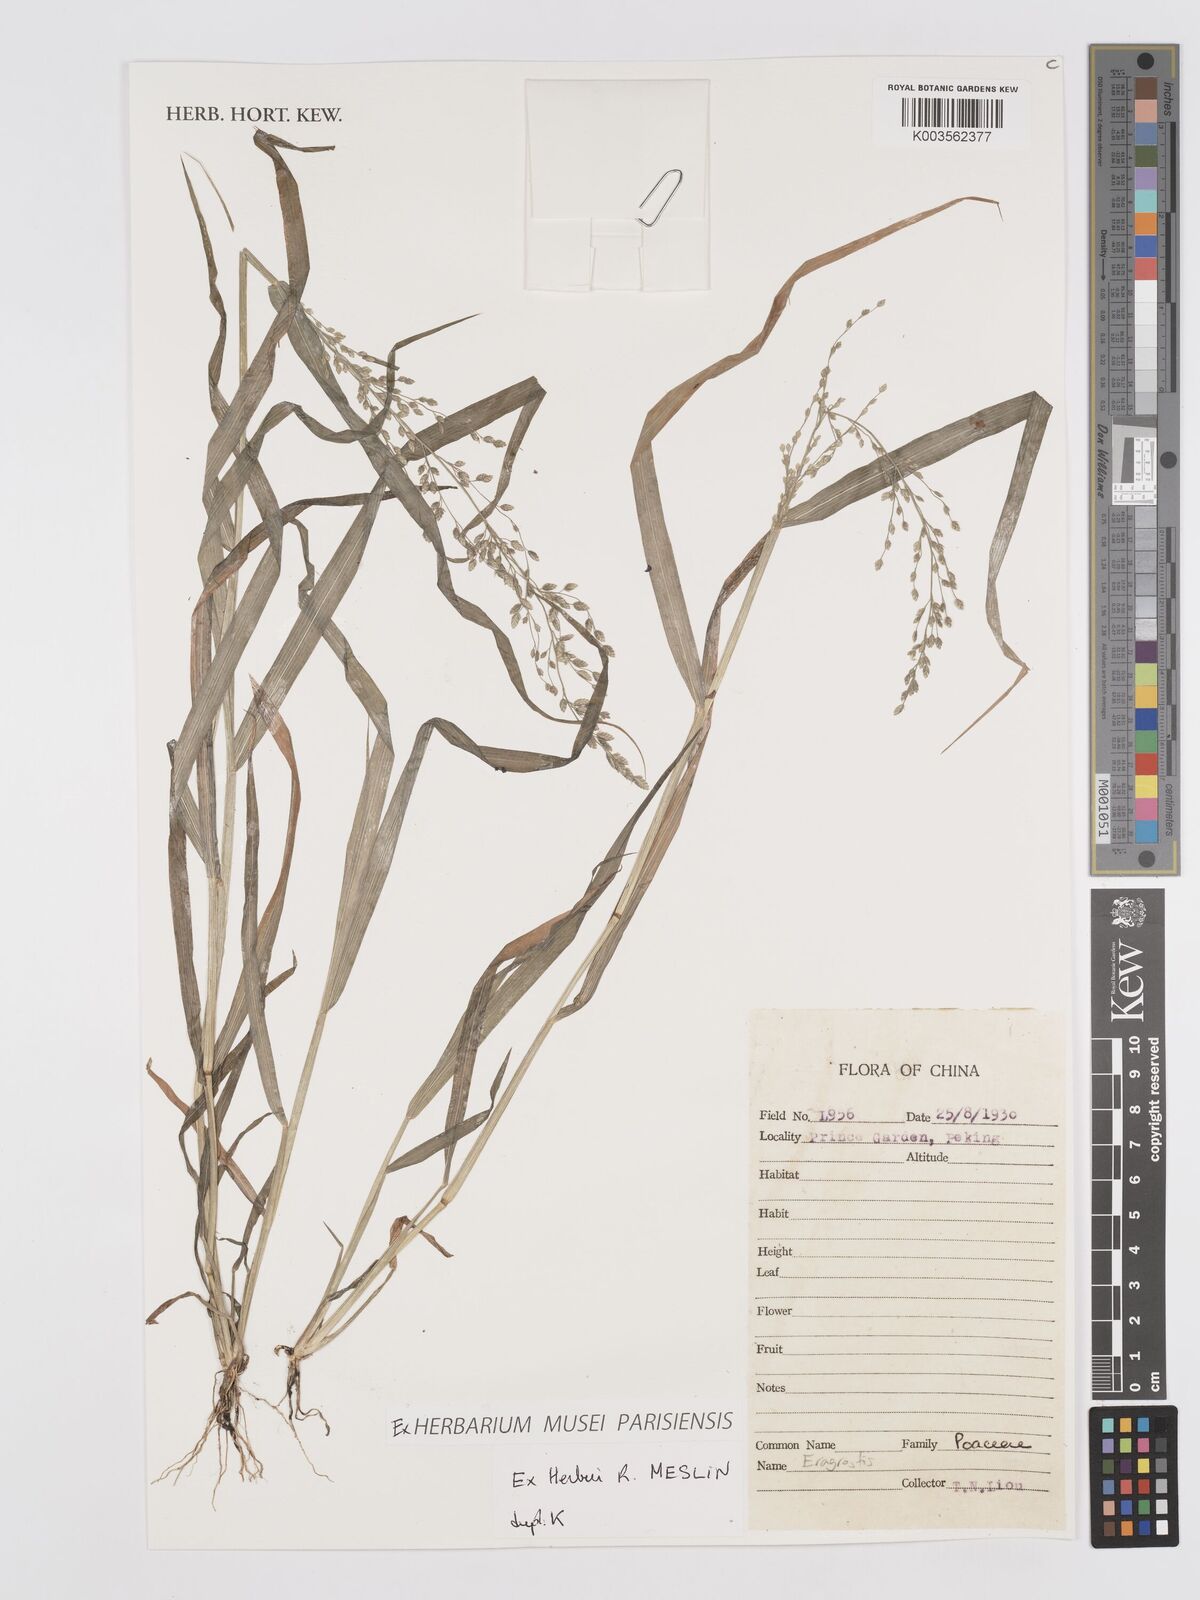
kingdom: Plantae
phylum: Tracheophyta
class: Liliopsida
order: Poales
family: Poaceae
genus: Eragrostis
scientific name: Eragrostis
